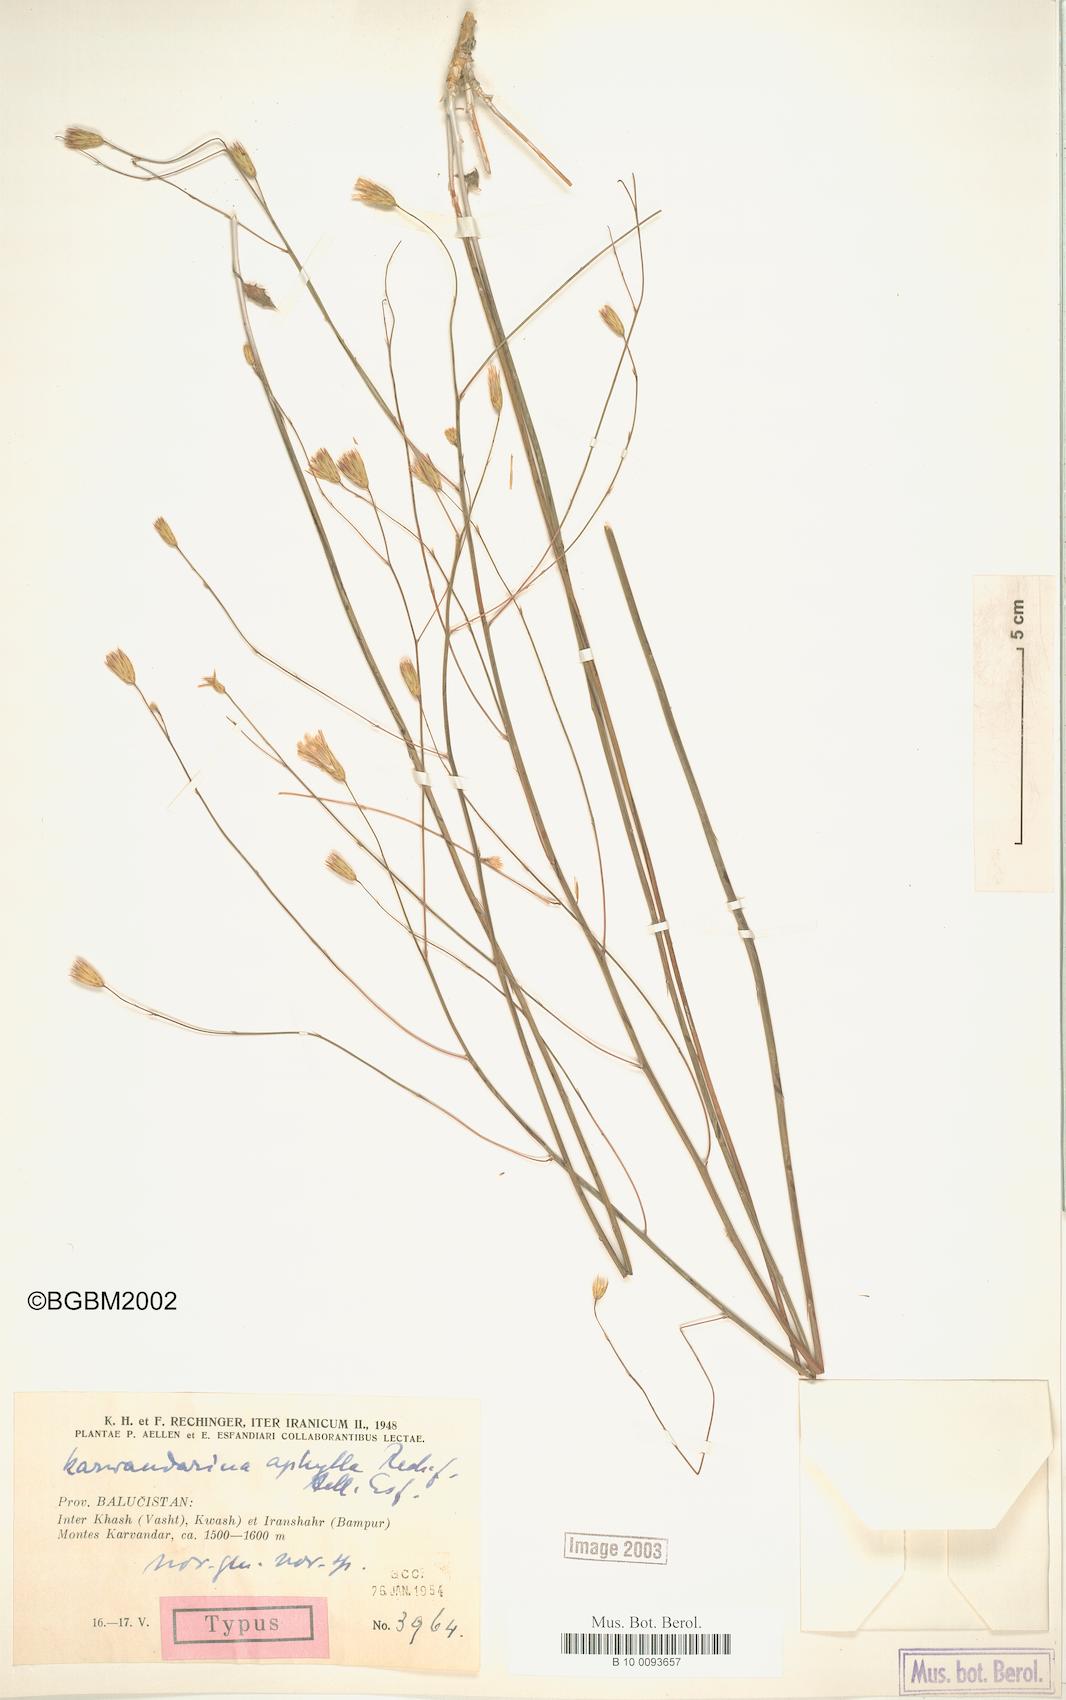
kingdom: Plantae
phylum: Tracheophyta
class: Magnoliopsida
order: Asterales
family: Asteraceae
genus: Karvandarina
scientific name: Karvandarina aphylla
